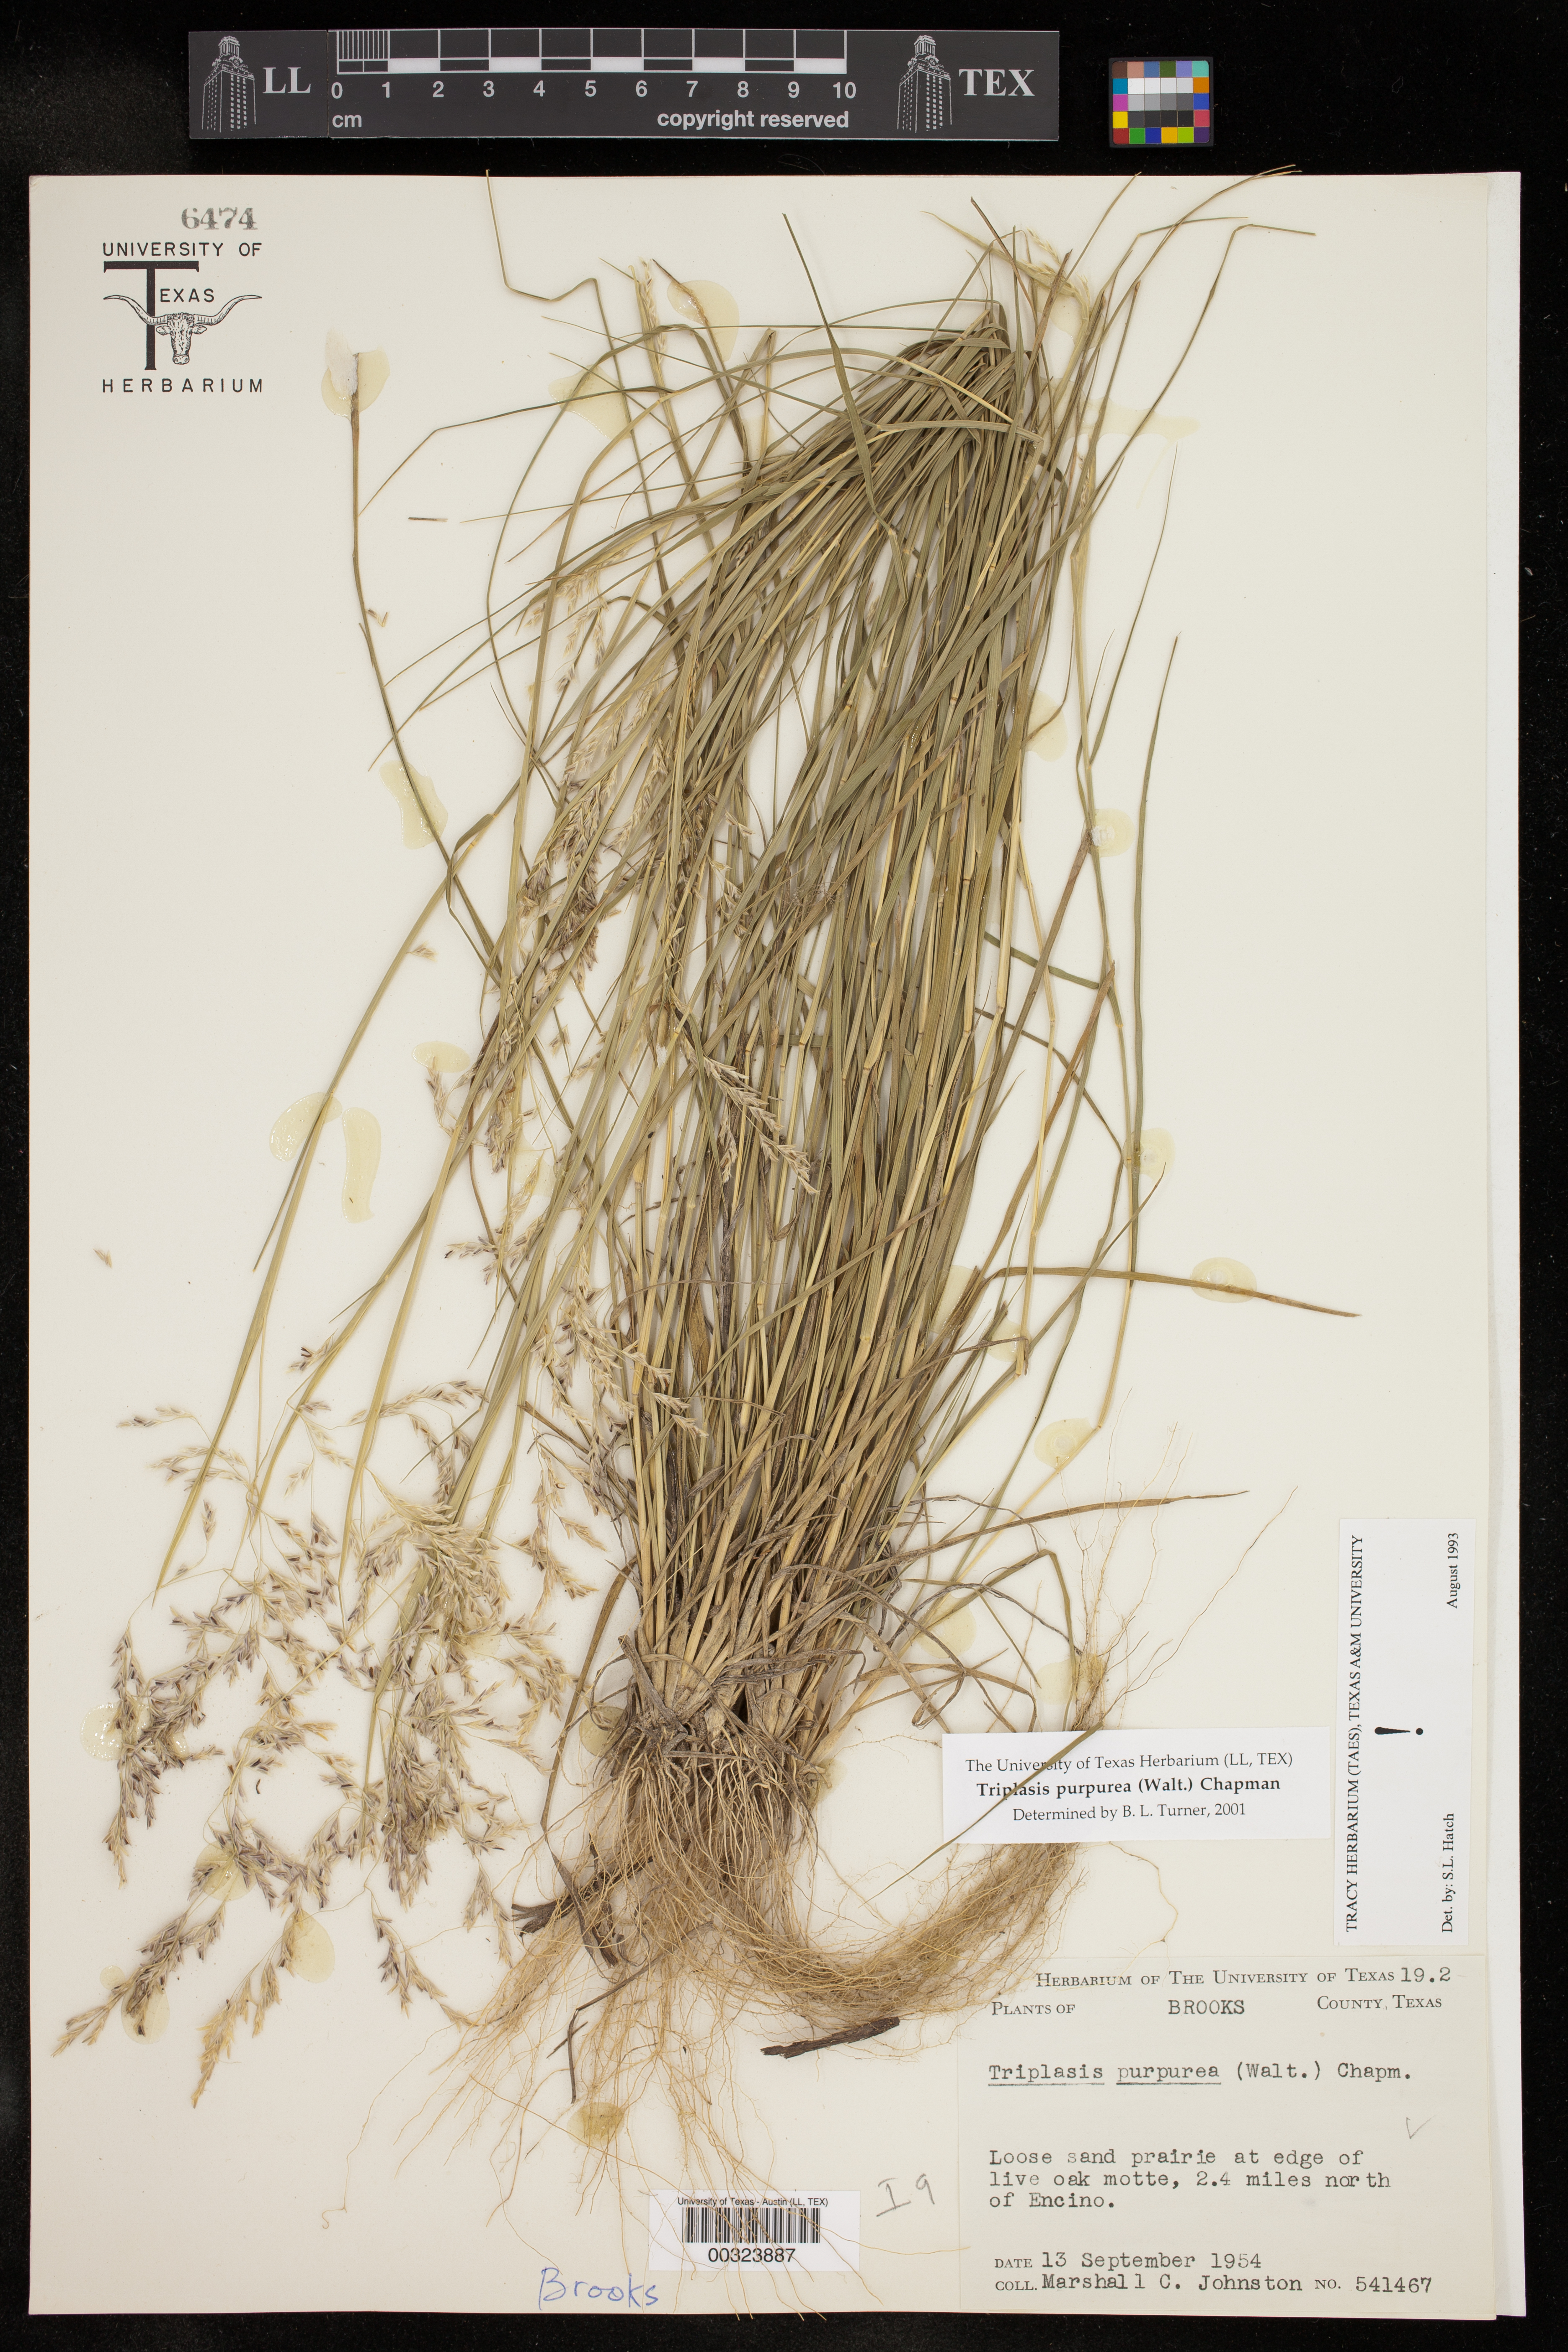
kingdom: Plantae
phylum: Tracheophyta
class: Liliopsida
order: Poales
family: Poaceae
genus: Triplasis
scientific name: Triplasis purpurea
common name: Purple sand grass
